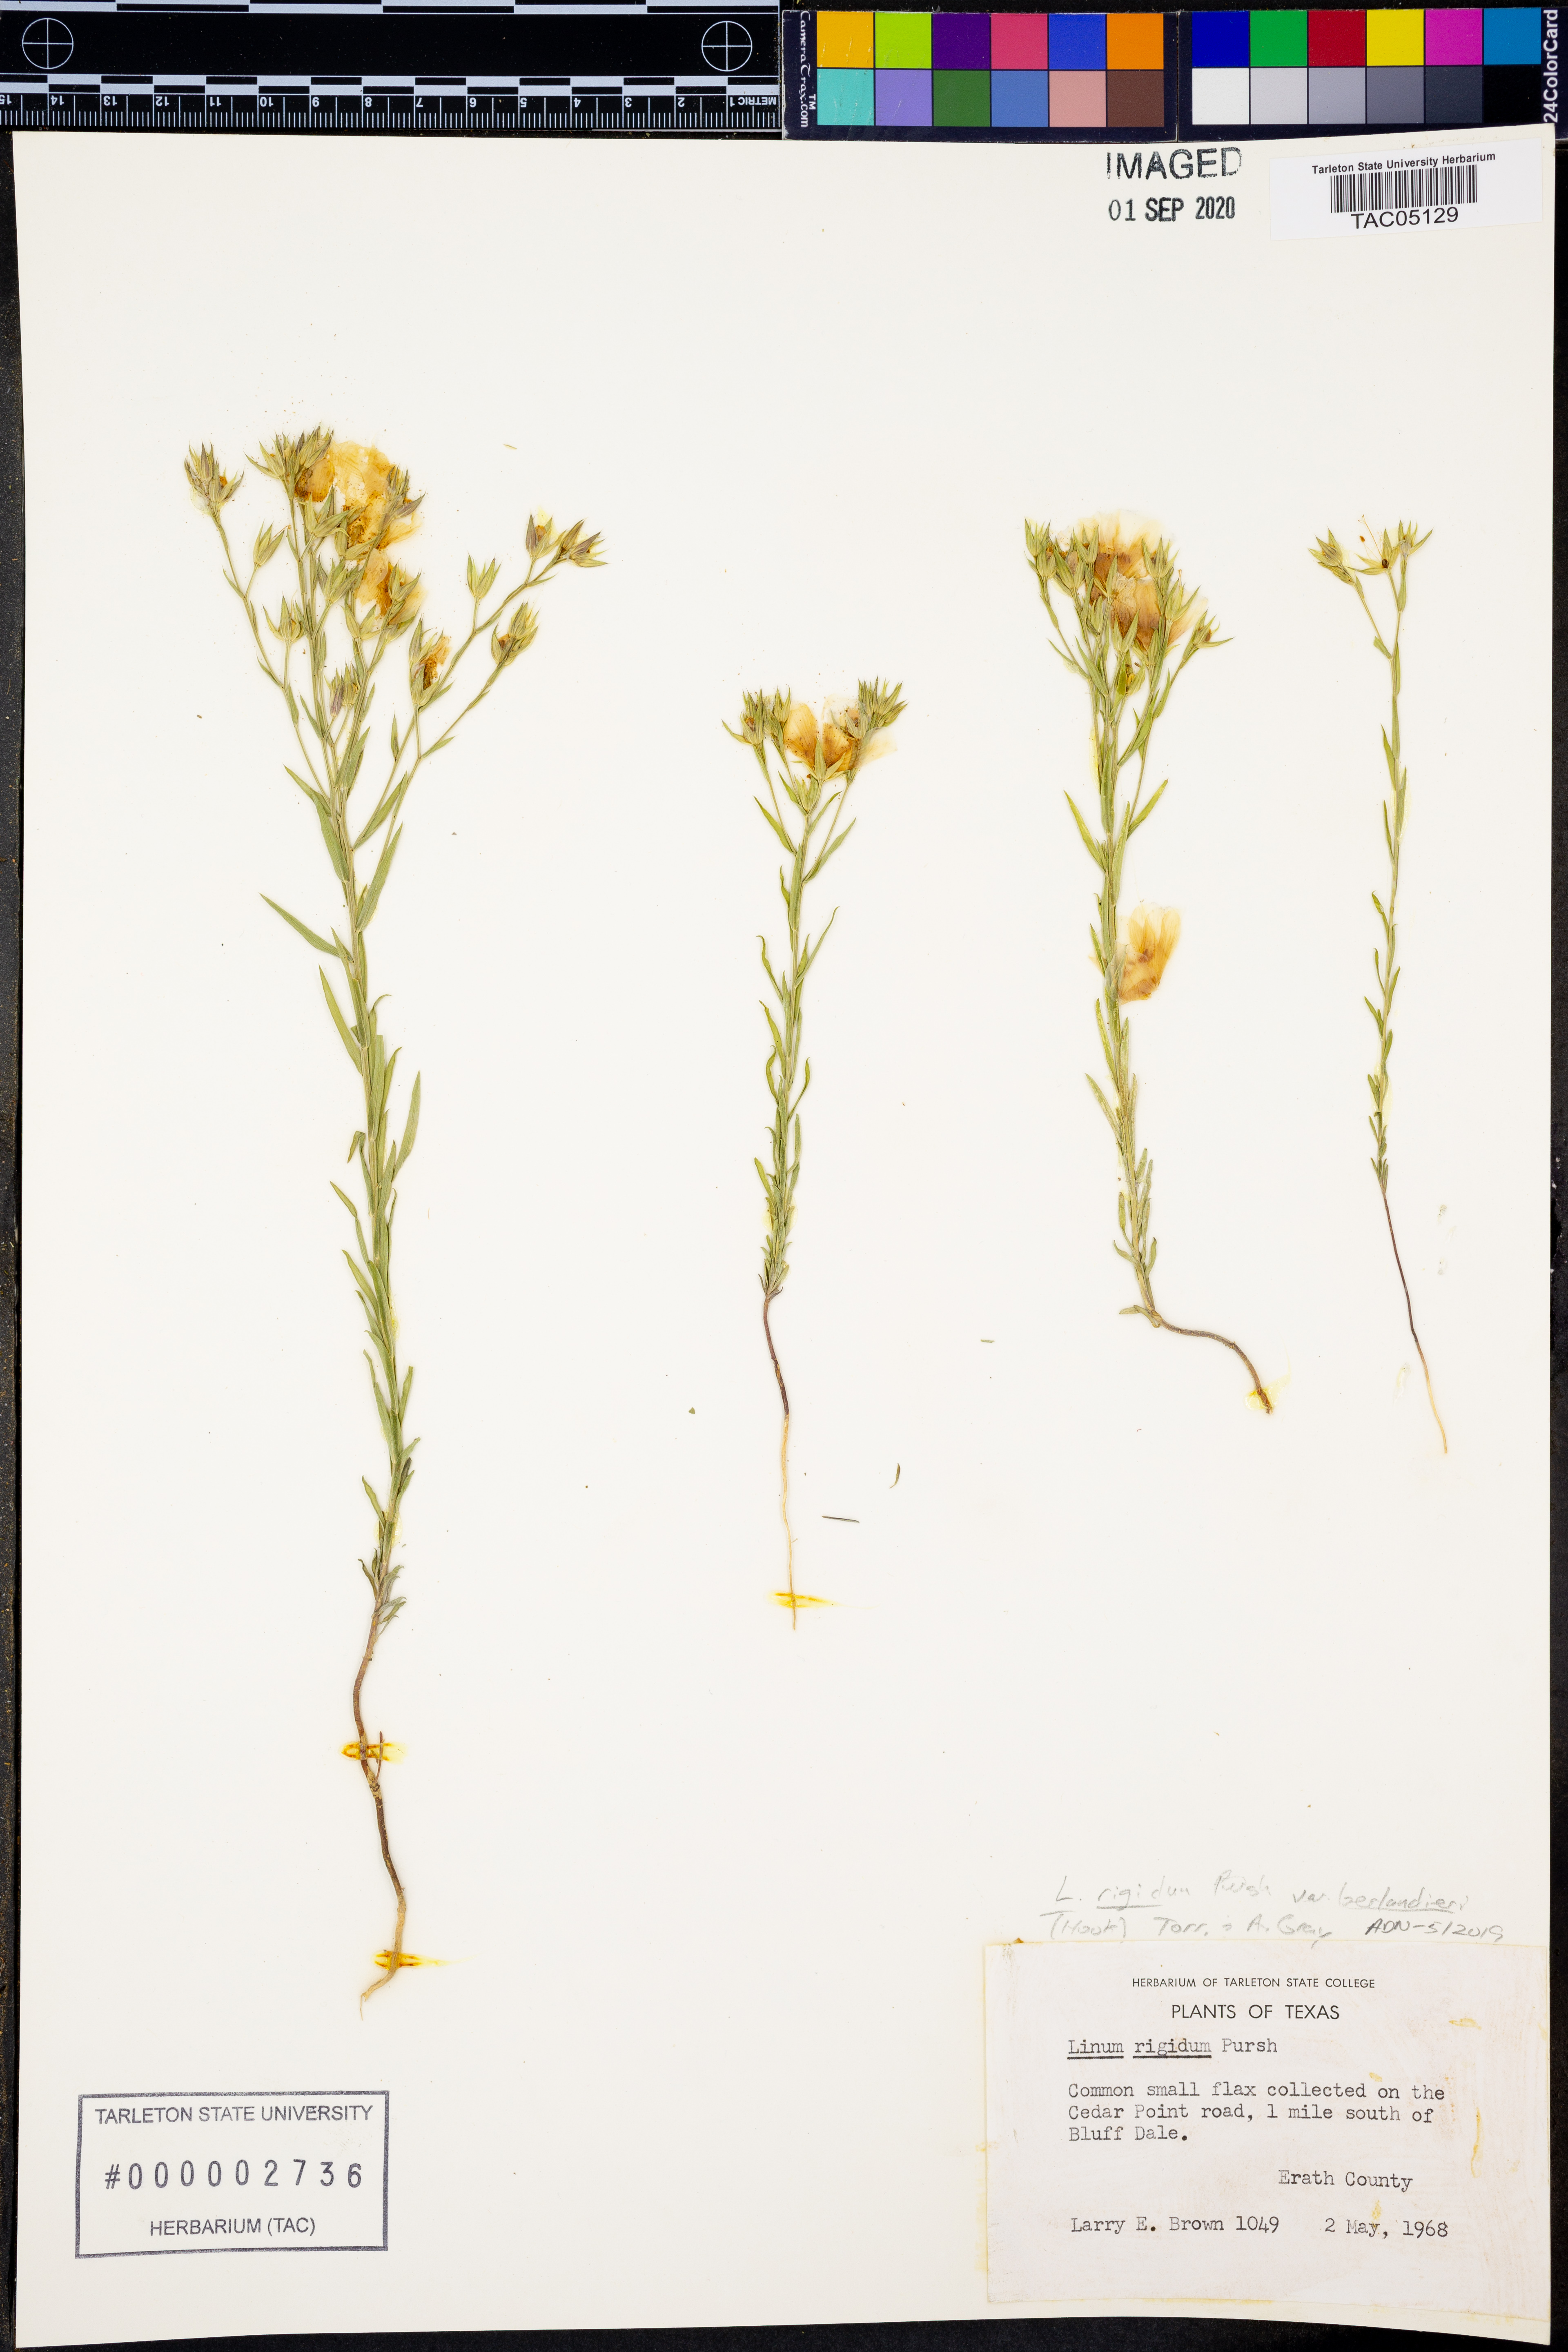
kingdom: Plantae
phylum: Tracheophyta
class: Magnoliopsida
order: Malpighiales
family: Linaceae
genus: Linum
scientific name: Linum berlandieri
